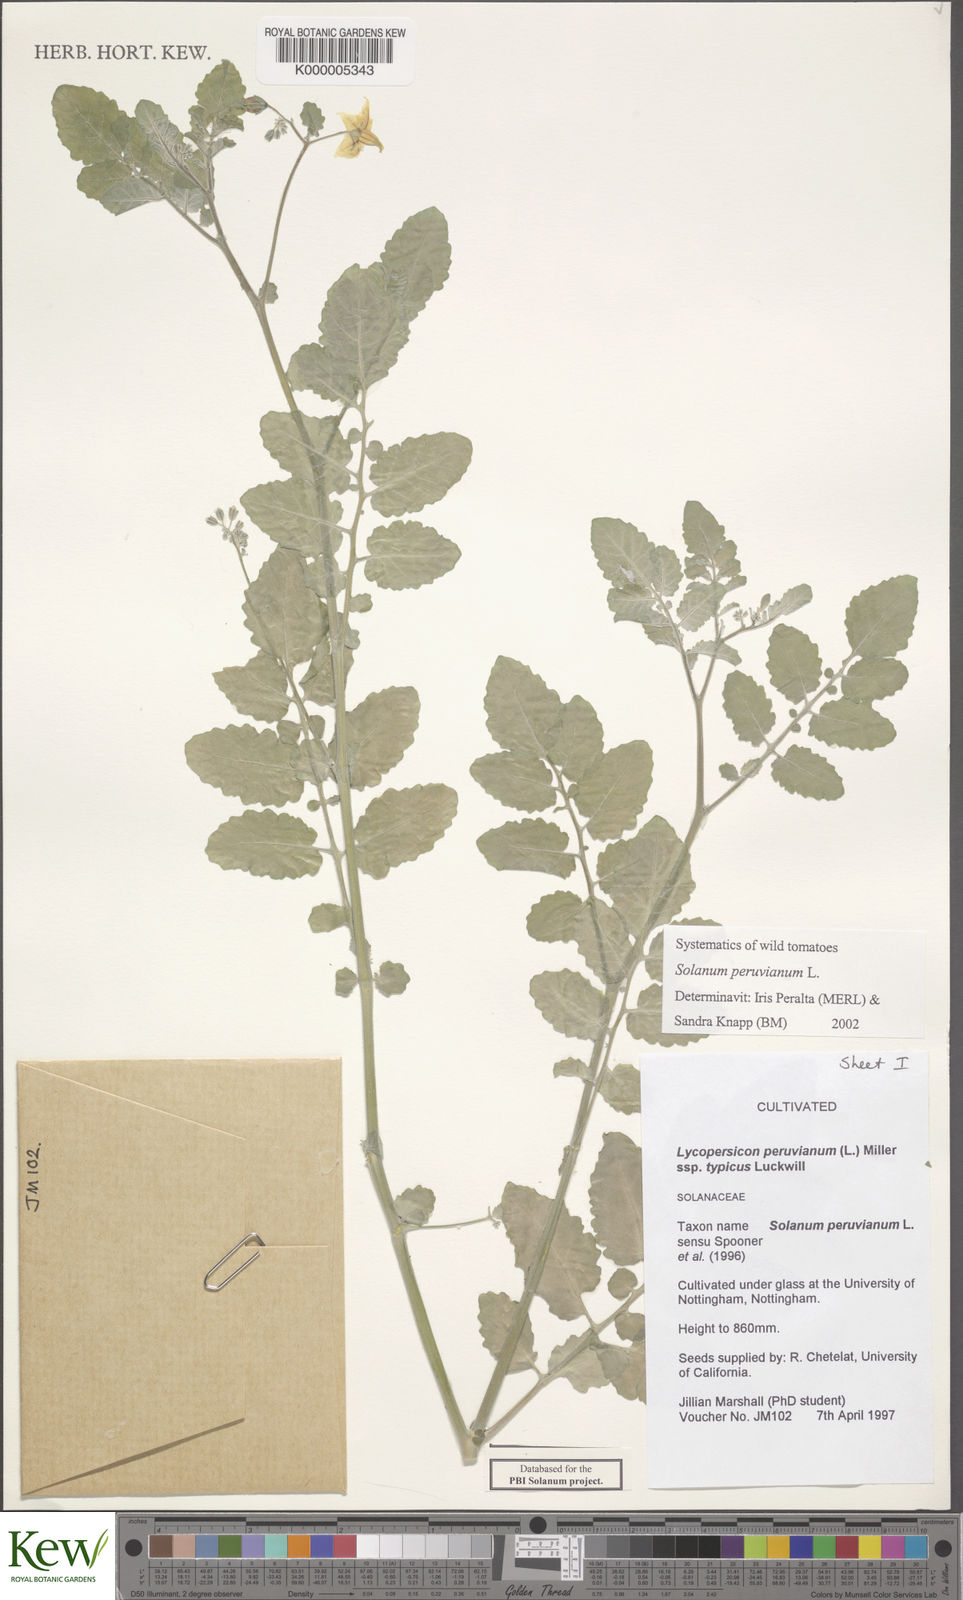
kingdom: Plantae
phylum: Tracheophyta
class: Magnoliopsida
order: Solanales
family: Solanaceae
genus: Solanum
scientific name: Solanum peruvianum
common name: Peruvian nightshade
